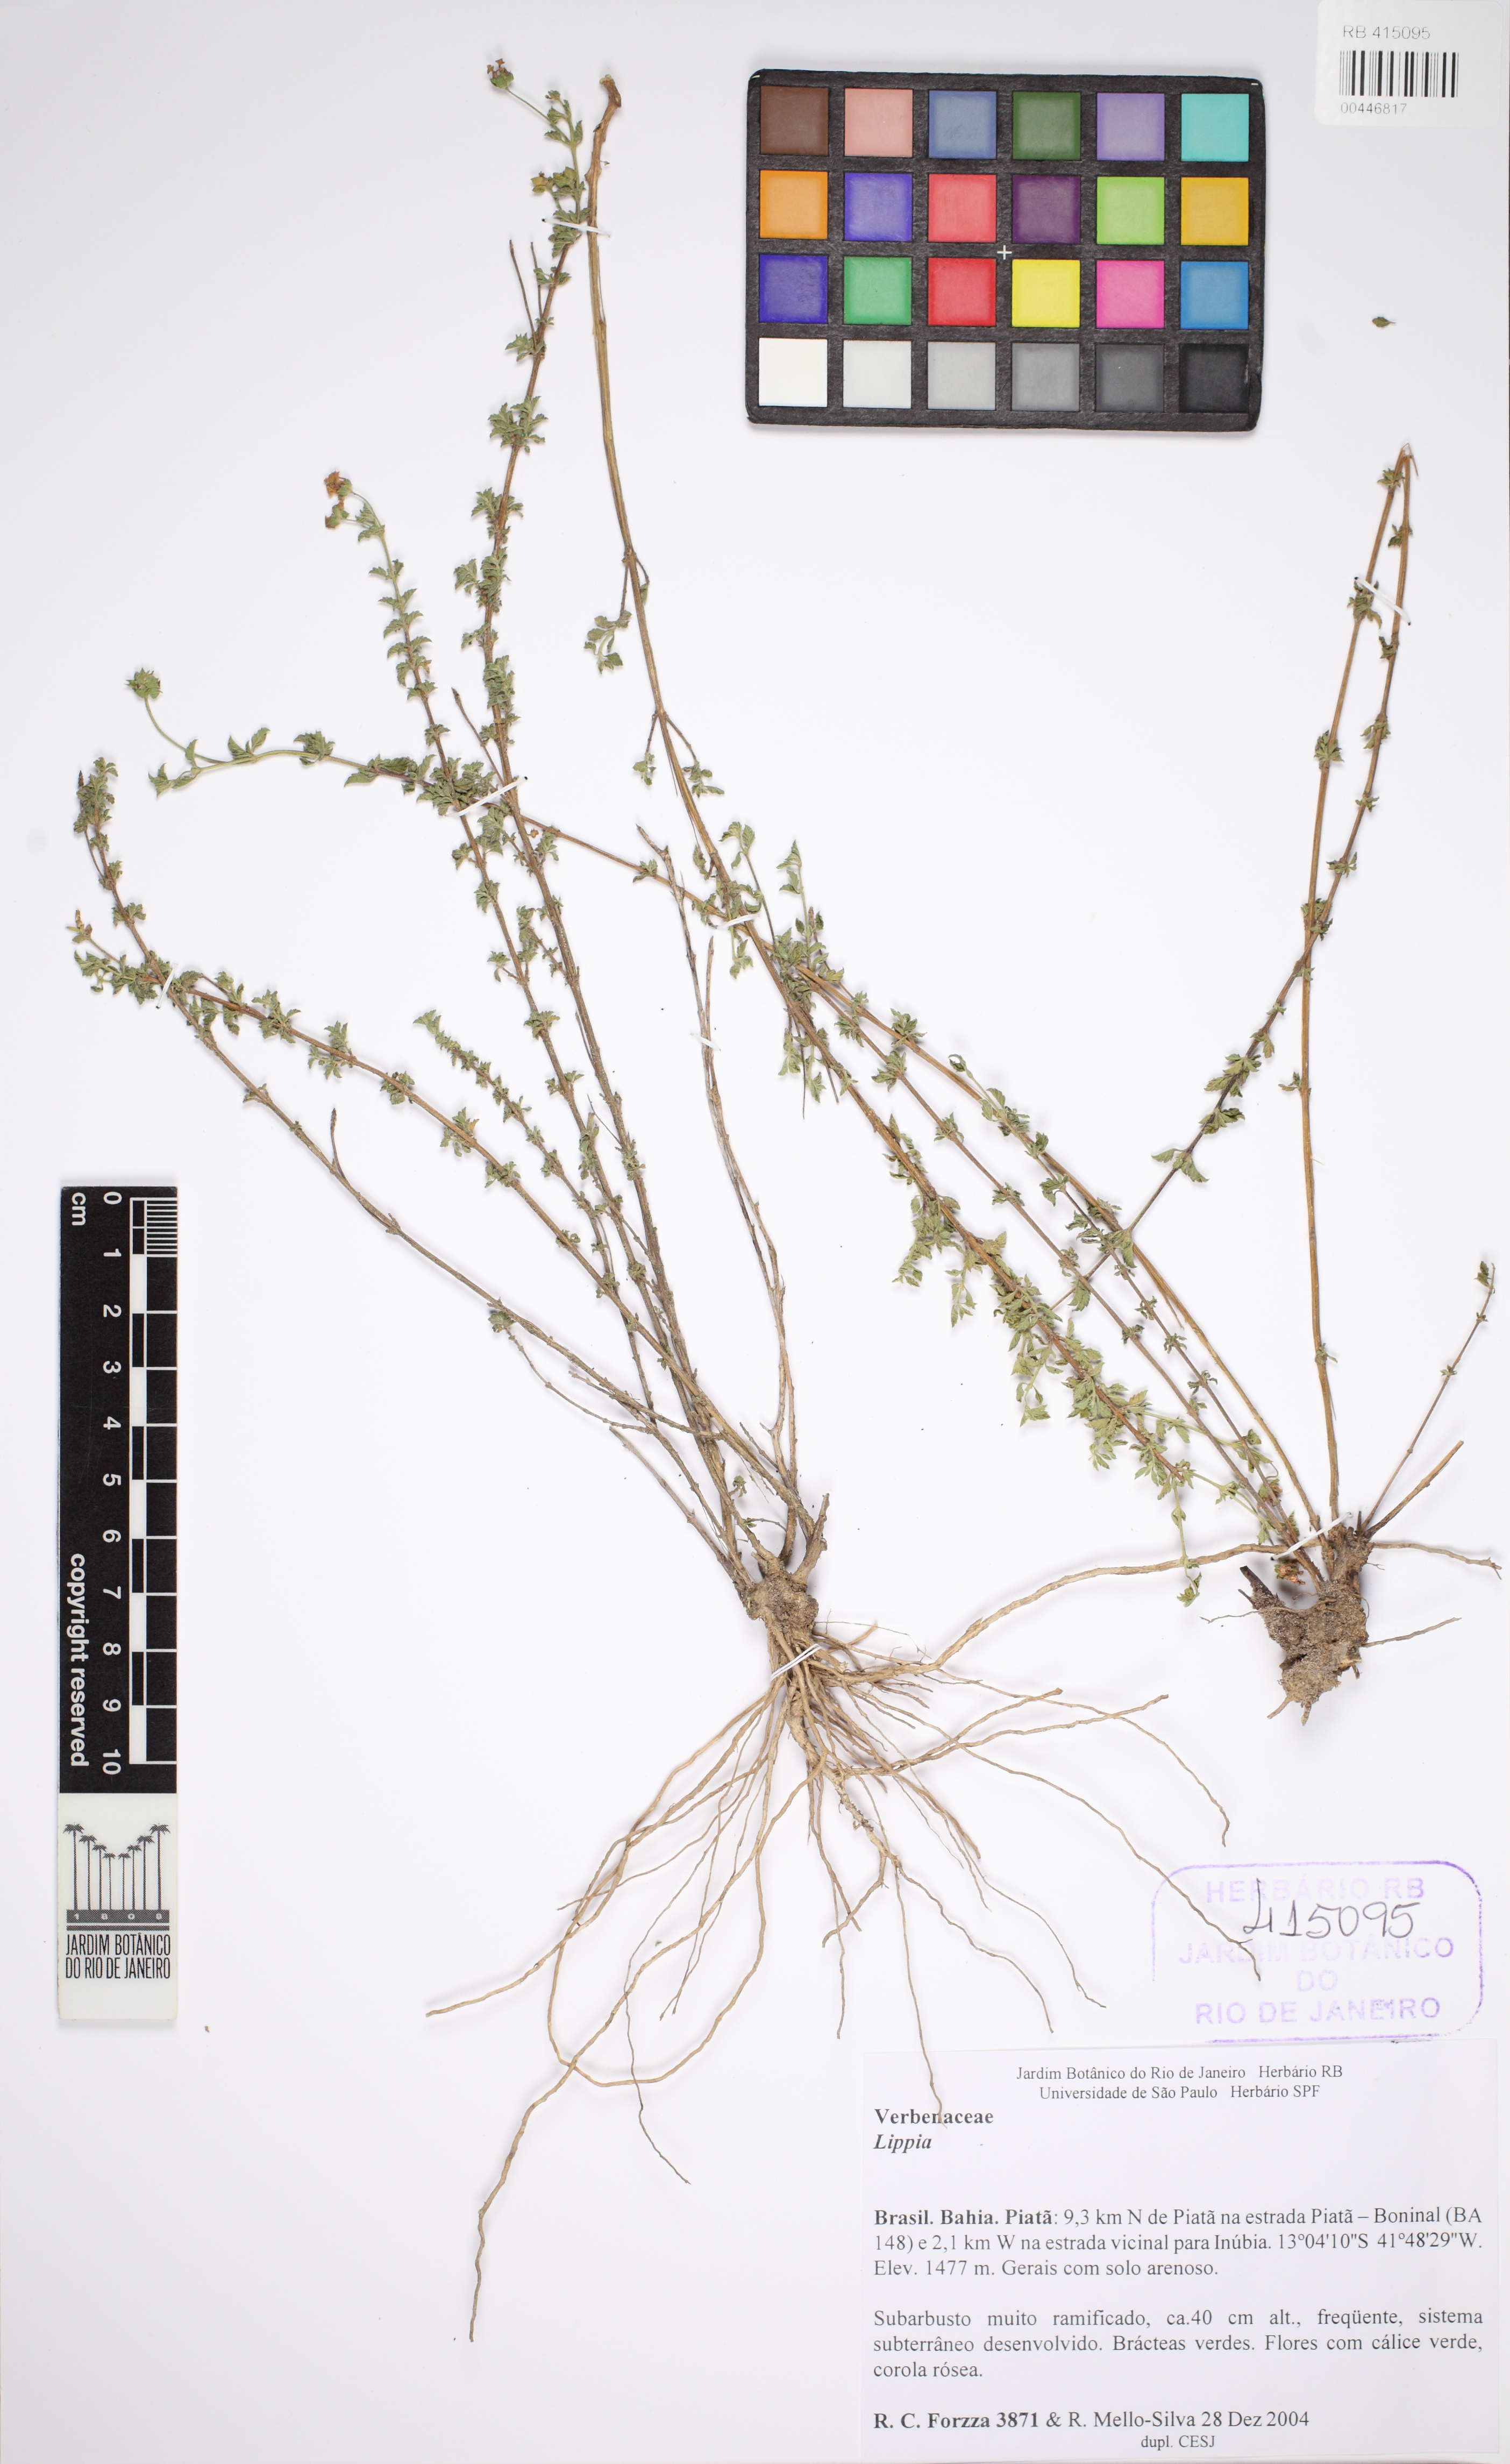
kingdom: Plantae
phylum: Tracheophyta
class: Magnoliopsida
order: Lamiales
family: Verbenaceae
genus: Lippia
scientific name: Lippia
